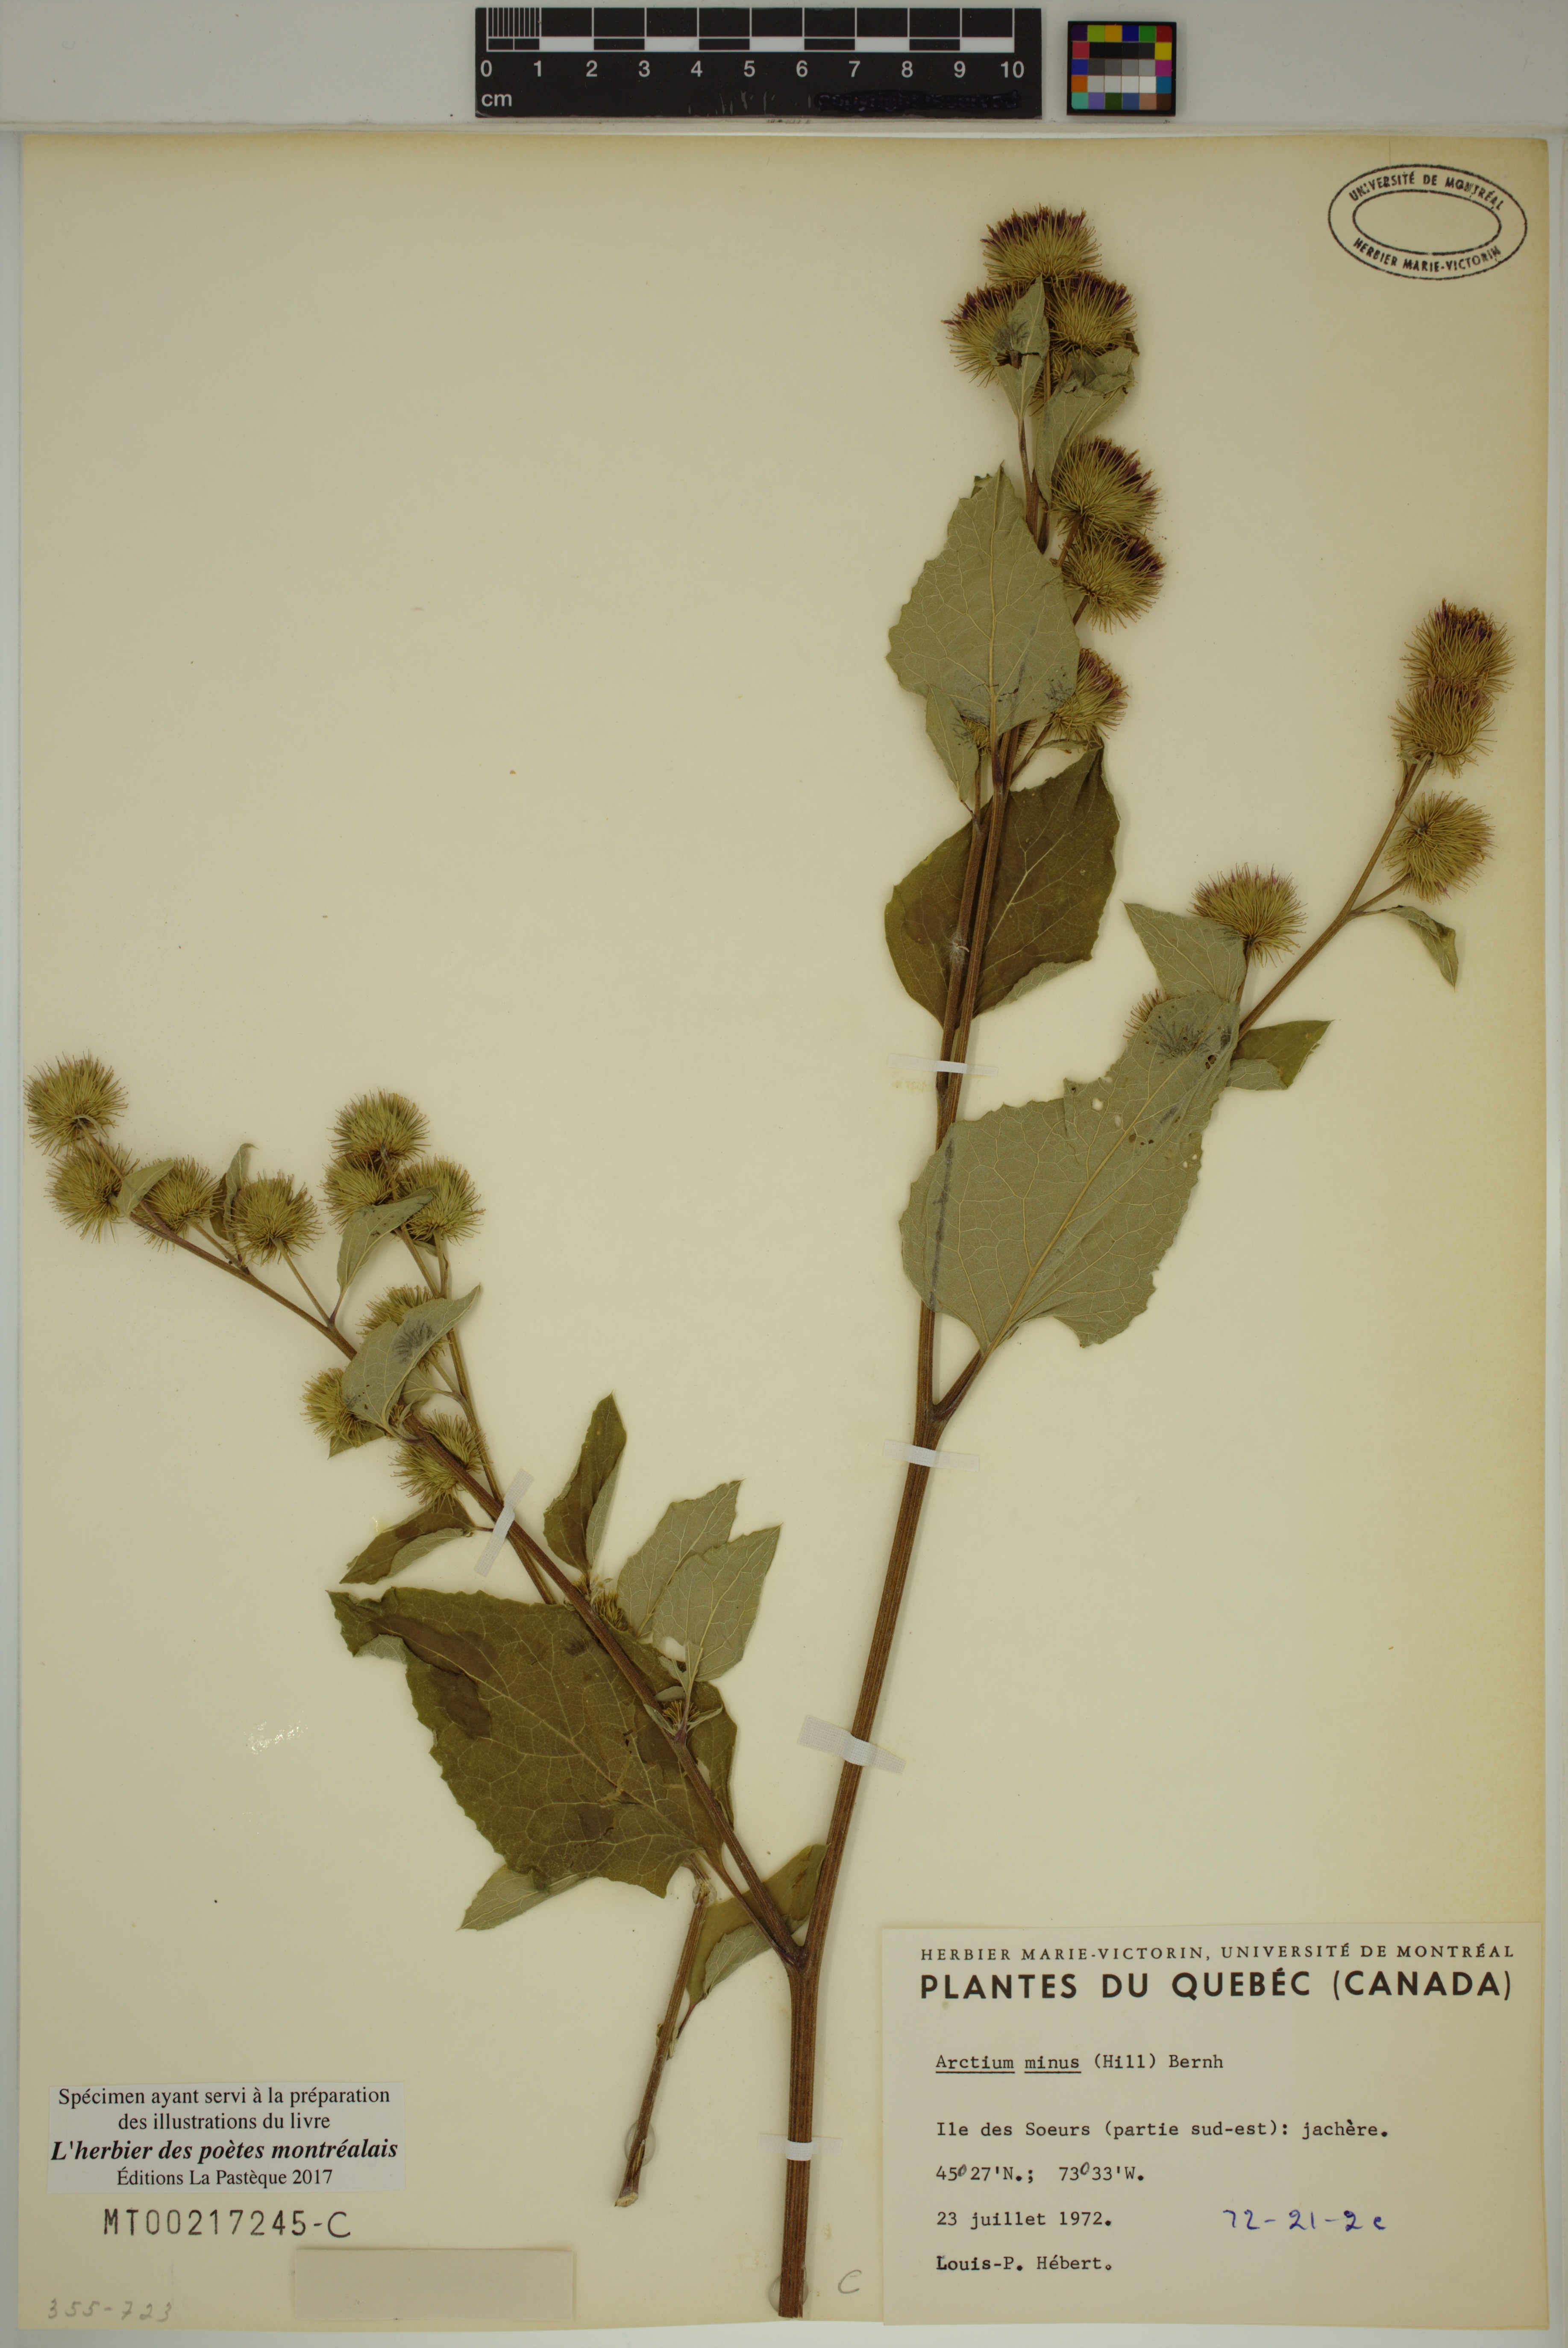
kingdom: Plantae
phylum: Tracheophyta
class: Magnoliopsida
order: Asterales
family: Asteraceae
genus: Arctium
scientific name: Arctium minus
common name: Lesser burdock
